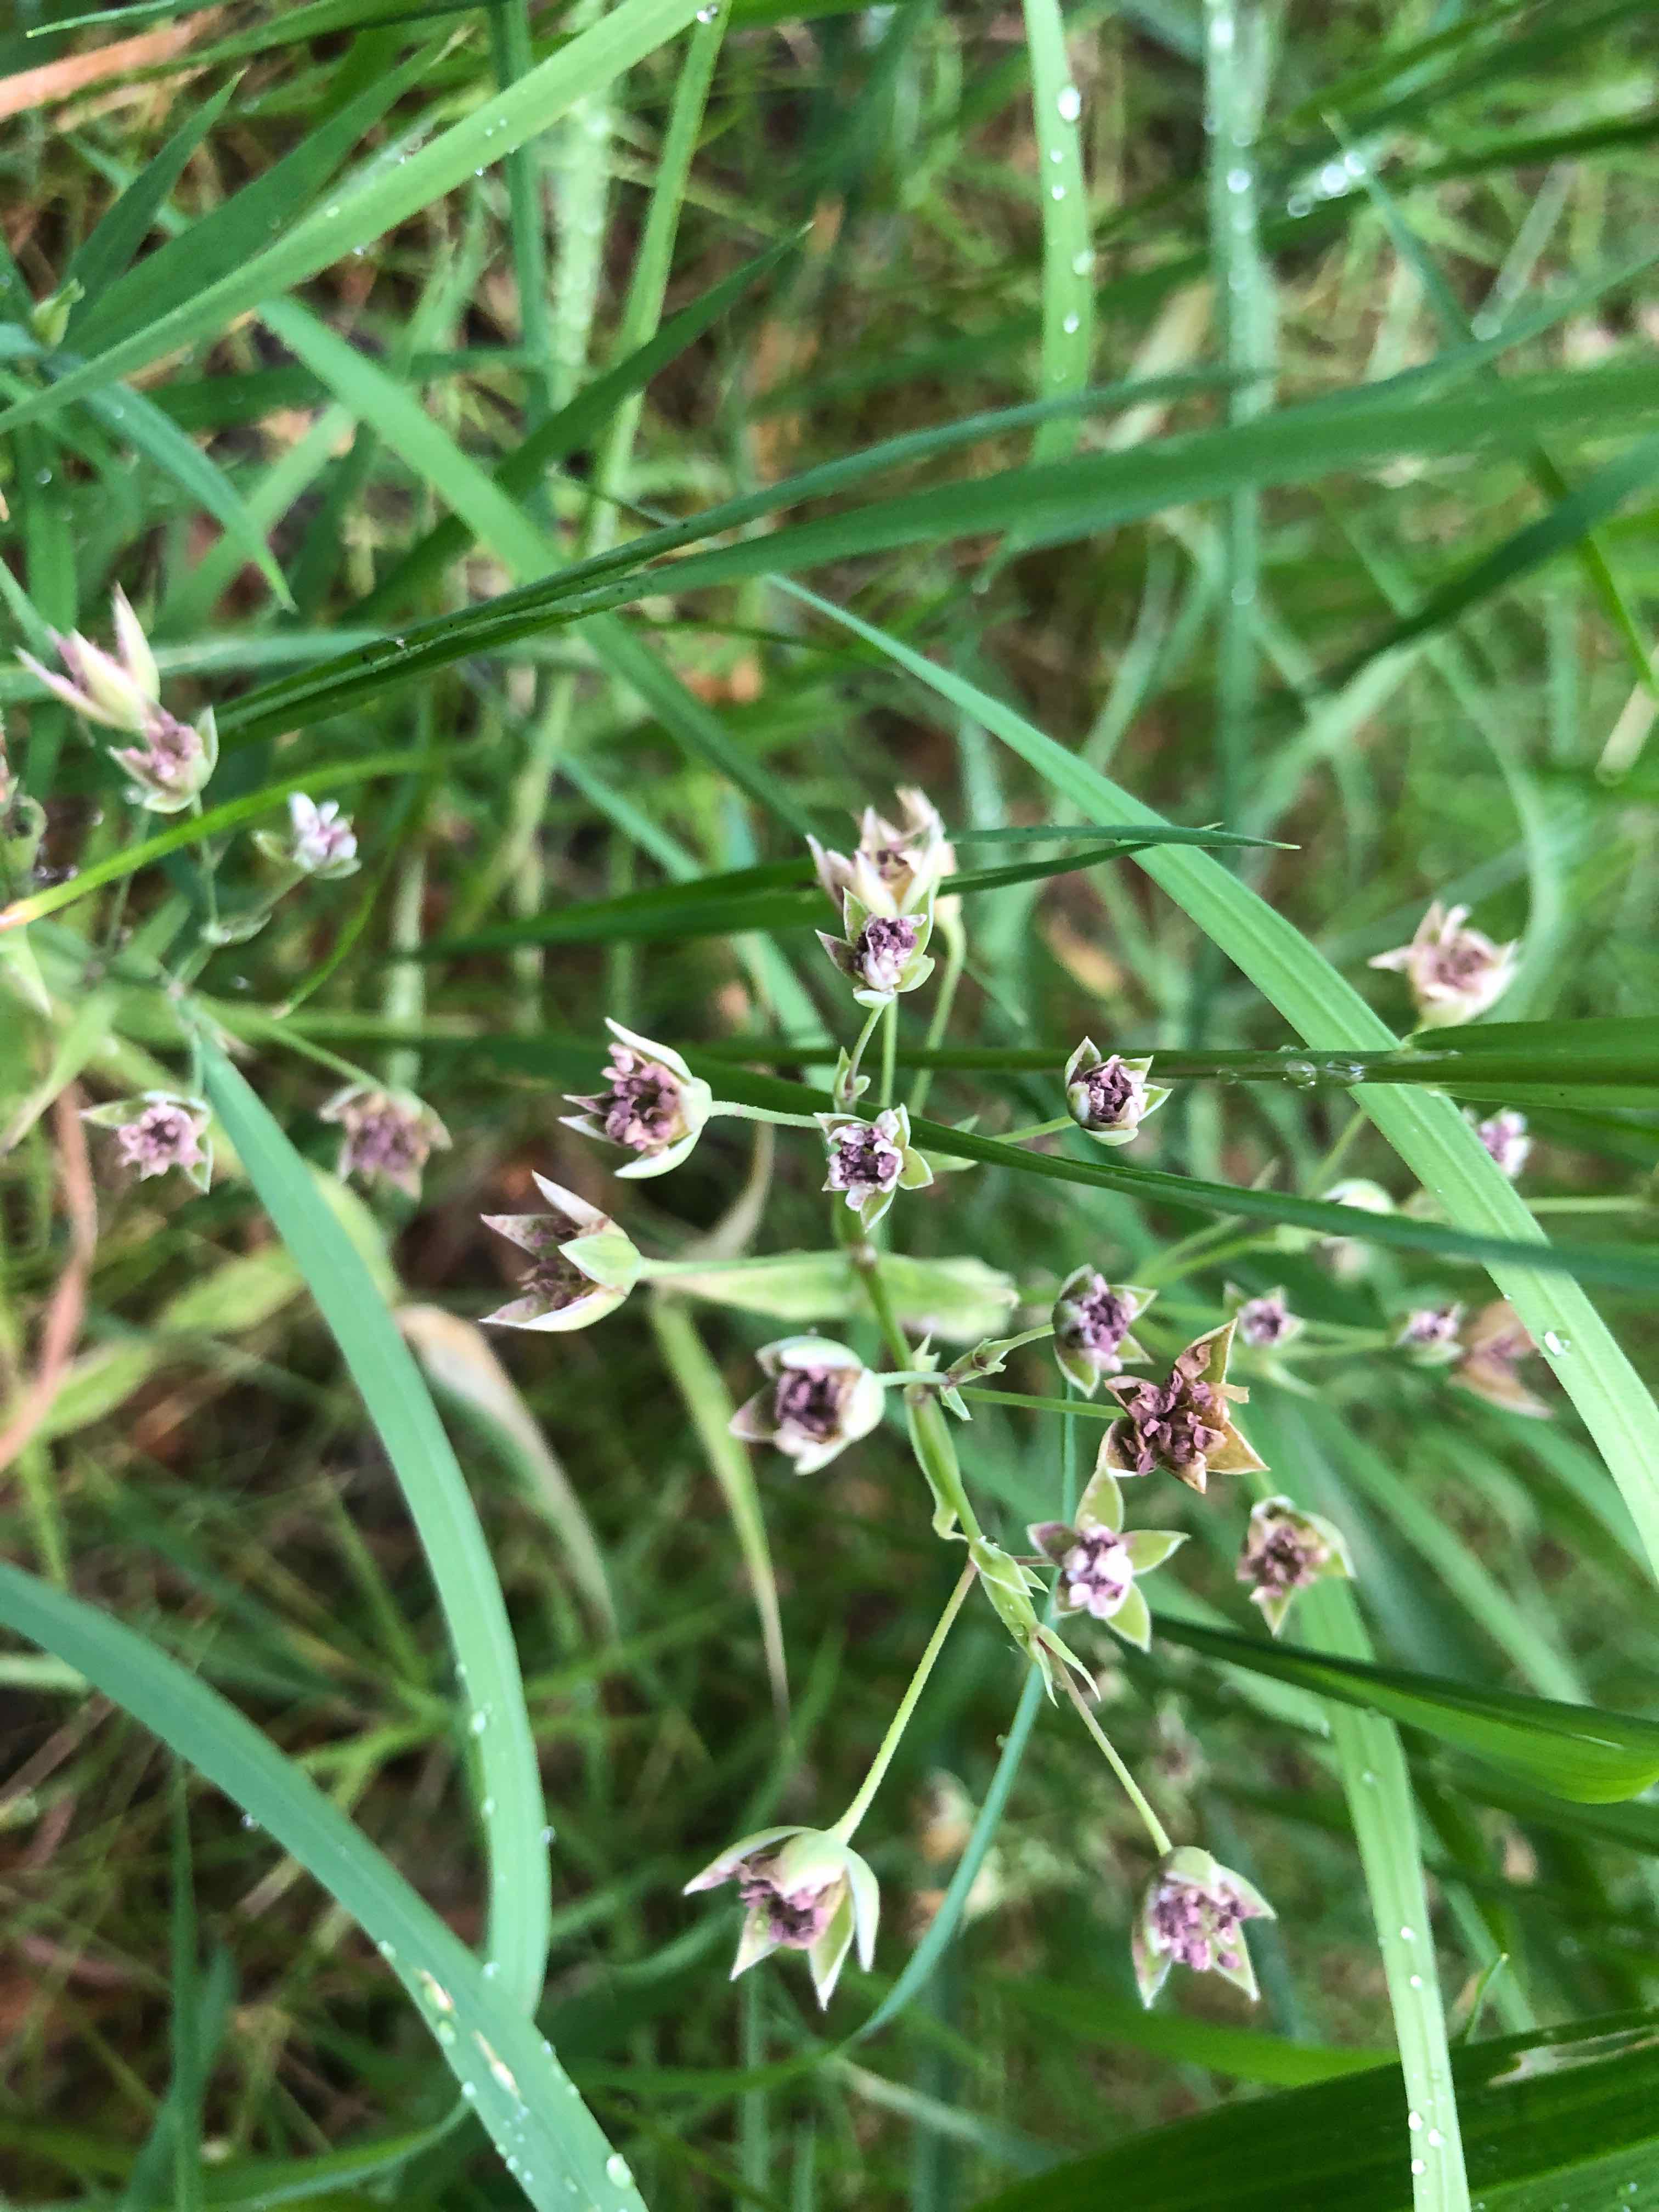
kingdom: Fungi
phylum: Basidiomycota
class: Microbotryomycetes
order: Microbotryales
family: Microbotryaceae
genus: Microbotryum
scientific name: Microbotryum stellariae
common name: fladstjerne-støvbladrust
